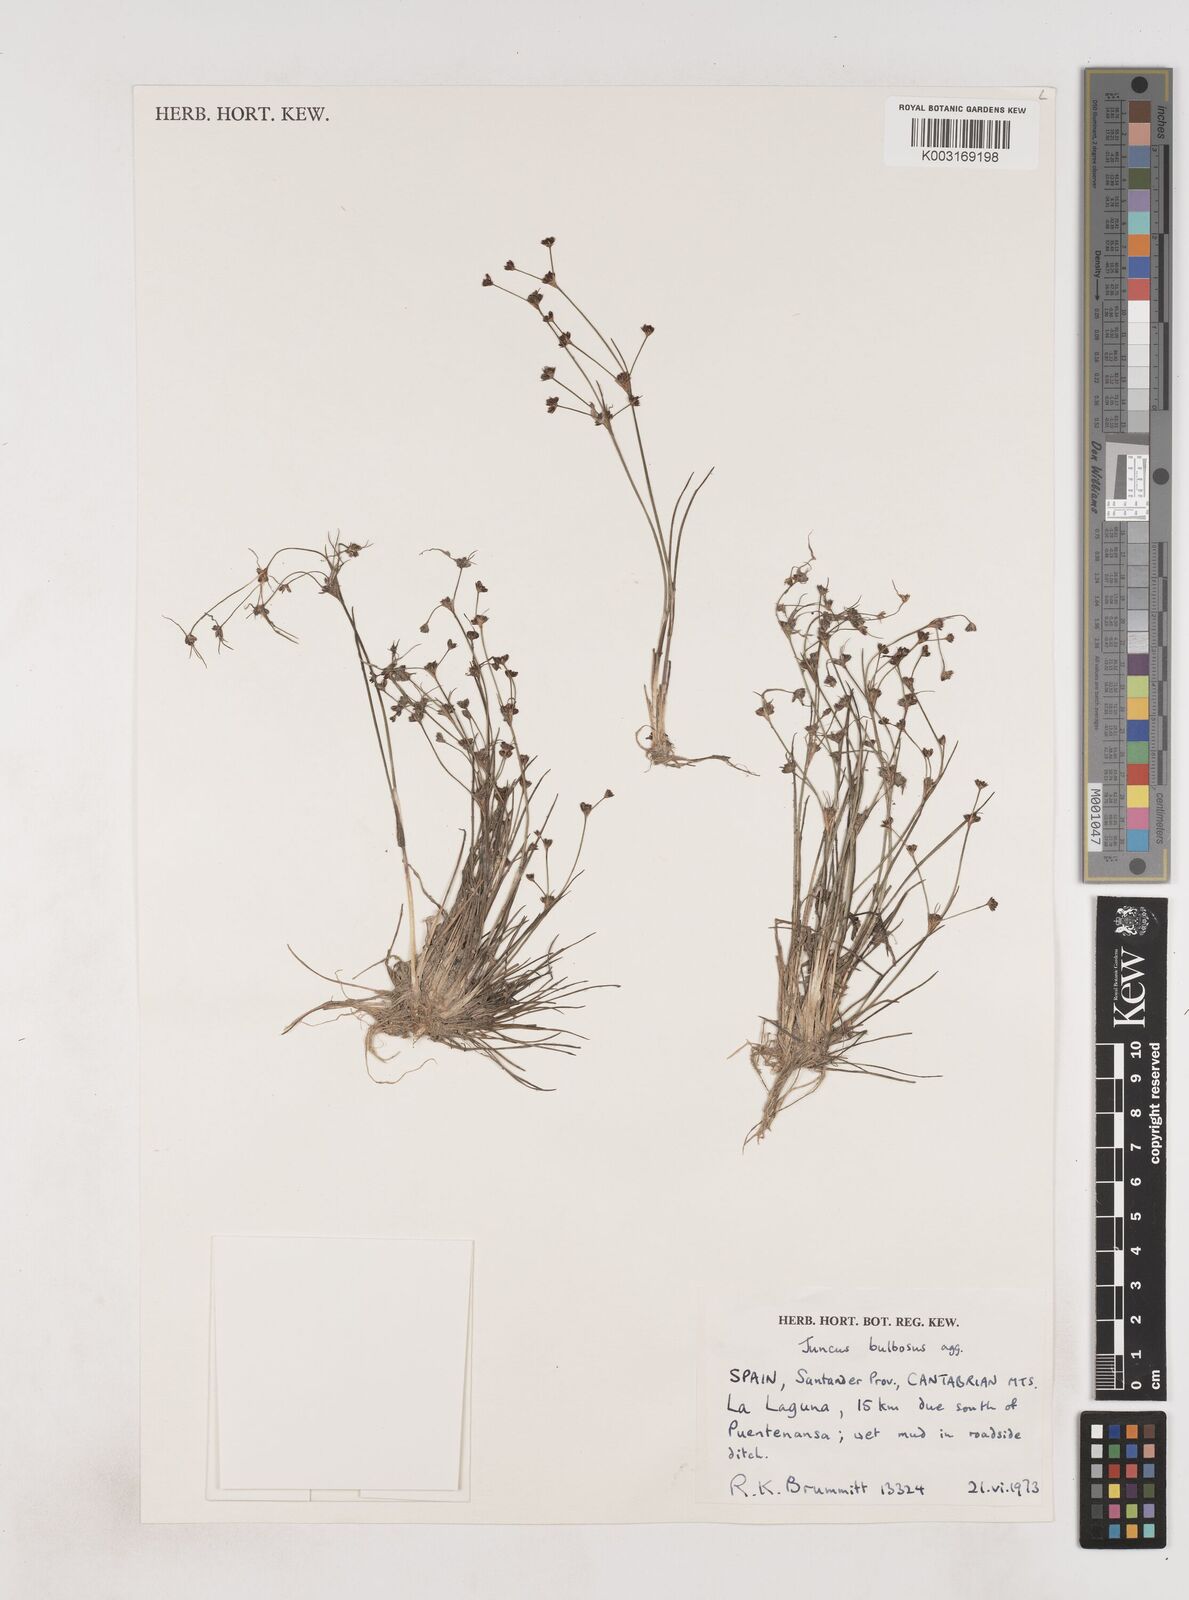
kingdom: Plantae
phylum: Tracheophyta
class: Liliopsida
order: Poales
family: Juncaceae
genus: Juncus
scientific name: Juncus bulbosus
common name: Bulbous rush
